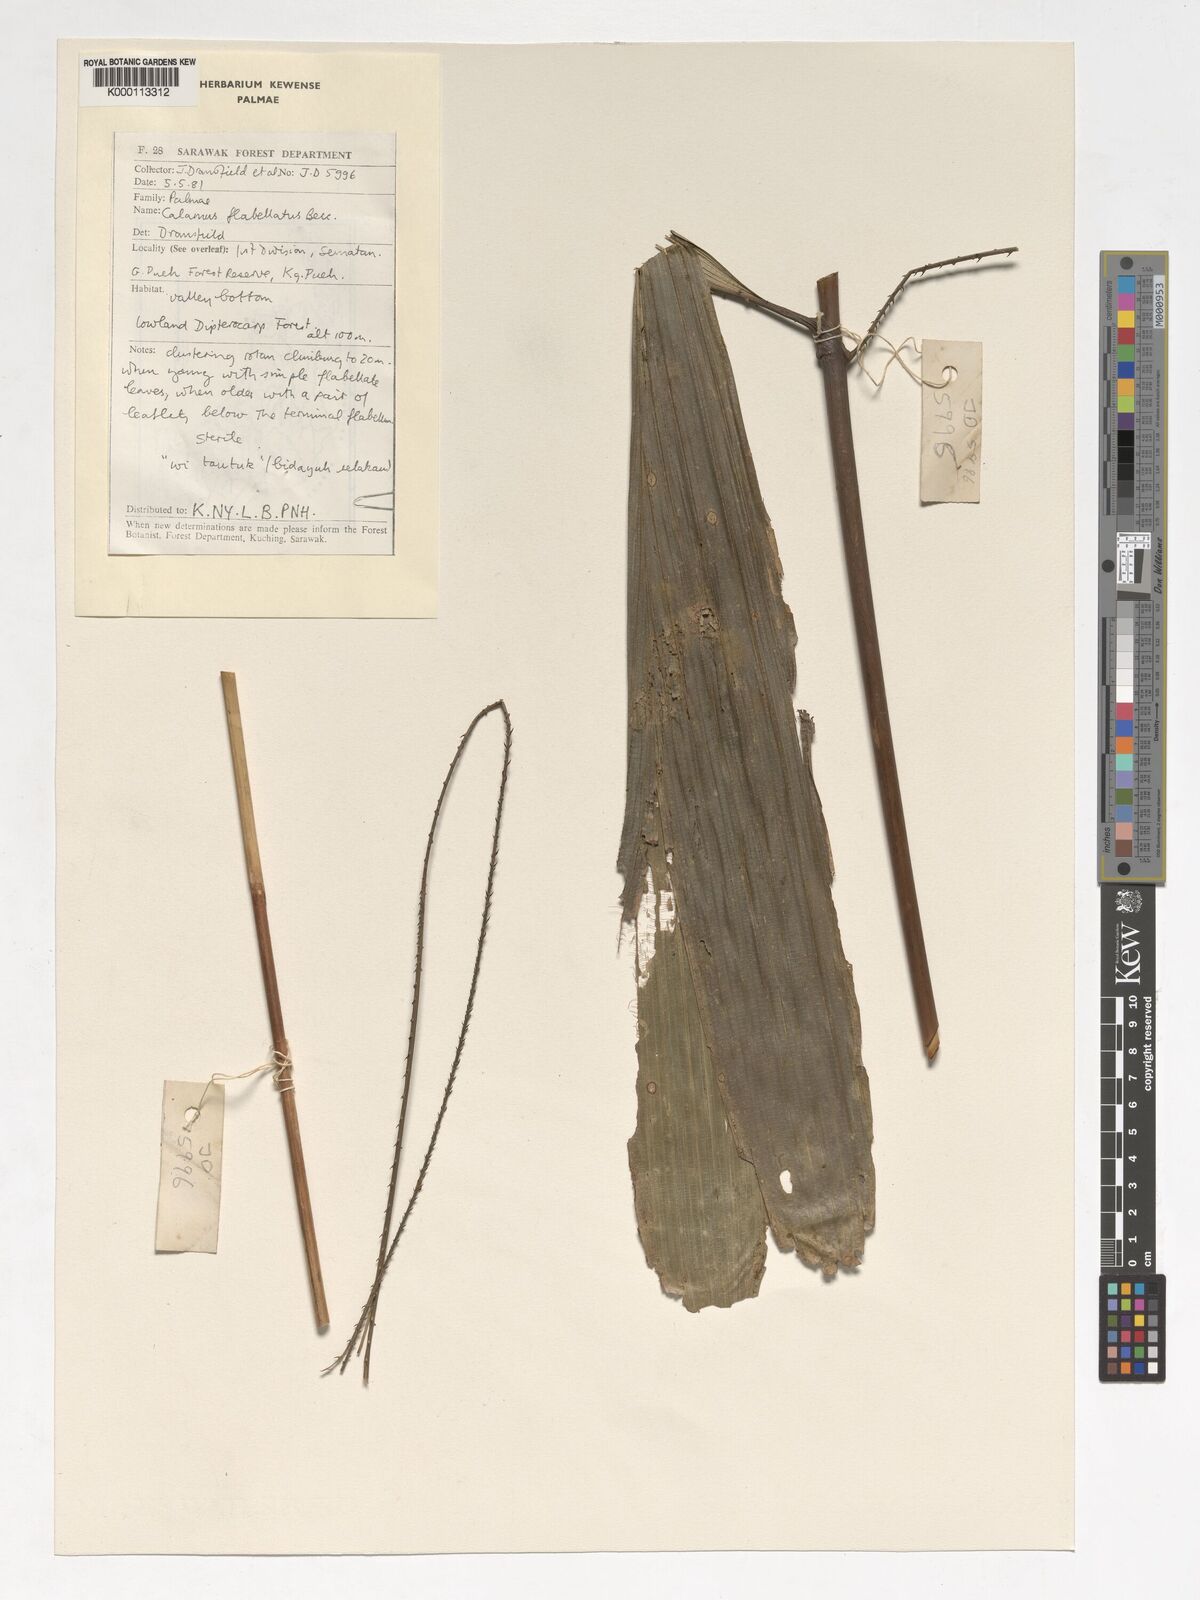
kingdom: Plantae
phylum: Tracheophyta
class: Liliopsida
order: Arecales
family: Arecaceae
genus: Calamus
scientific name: Calamus flabellatus
